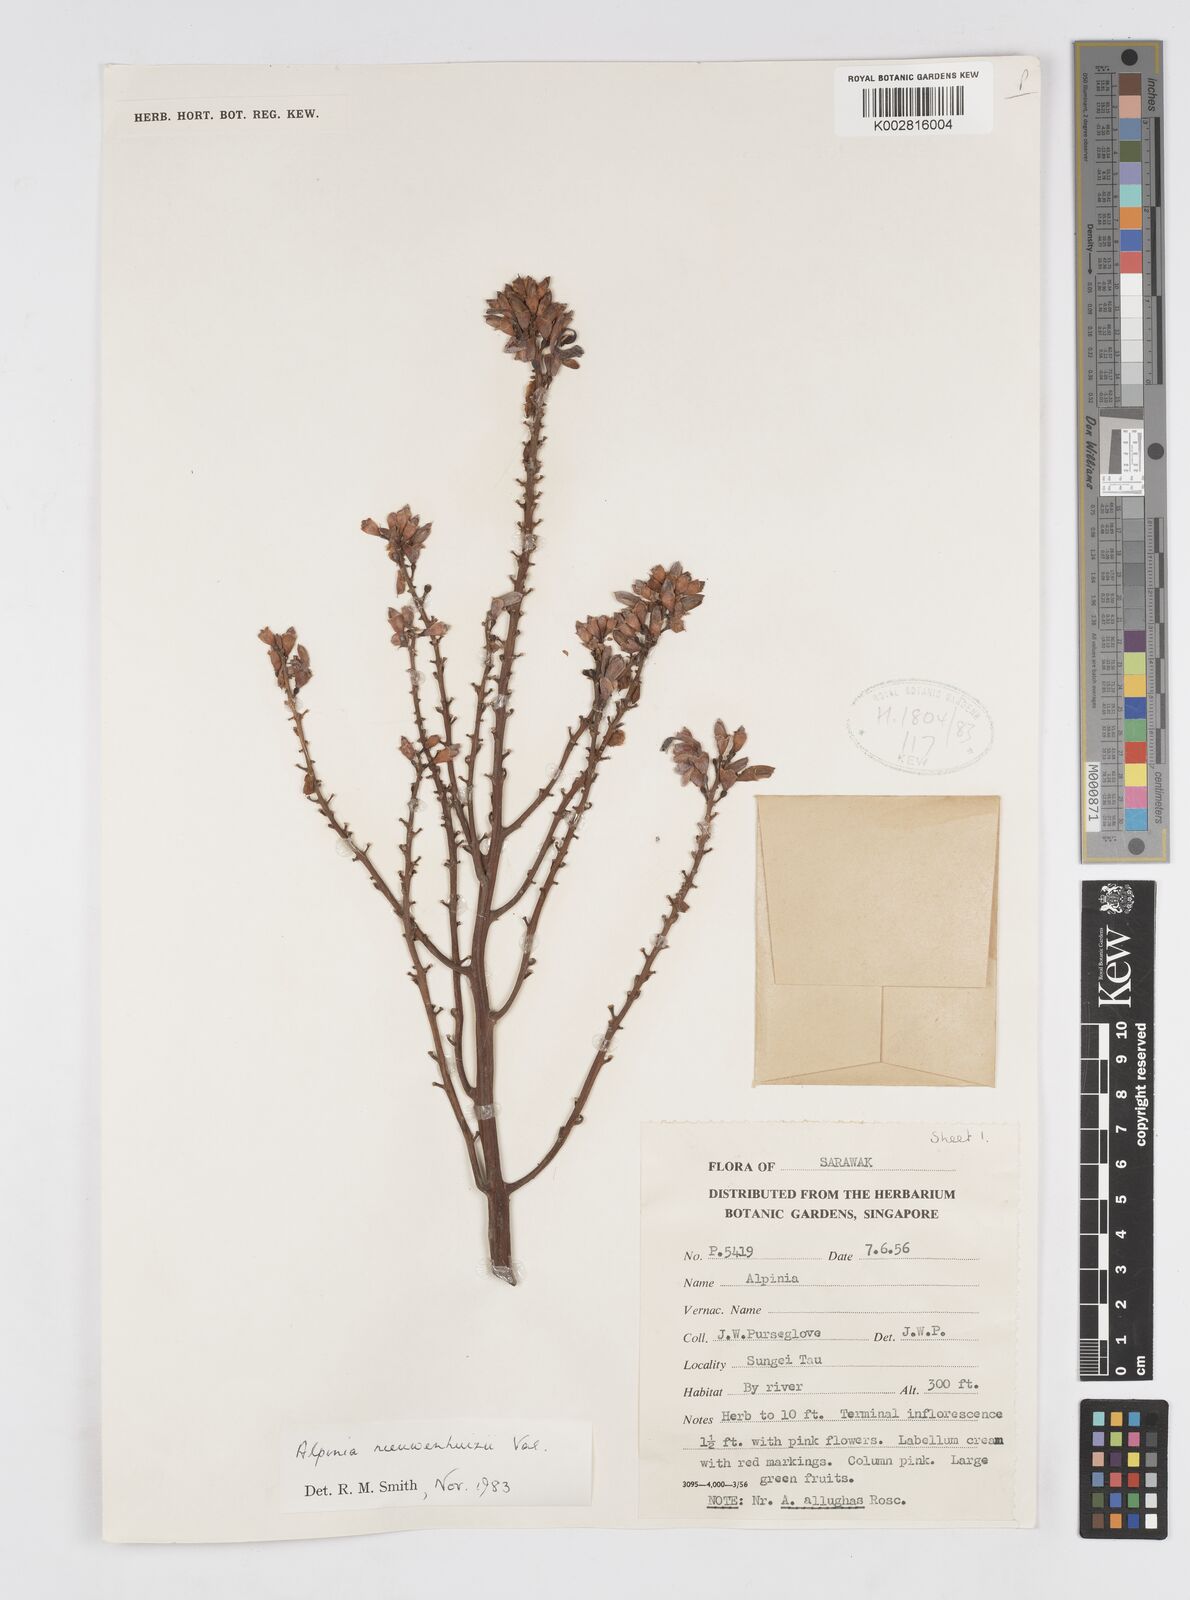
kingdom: Plantae
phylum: Tracheophyta
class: Liliopsida
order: Zingiberales
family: Zingiberaceae
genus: Alpinia
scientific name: Alpinia nieuwenhuizii
